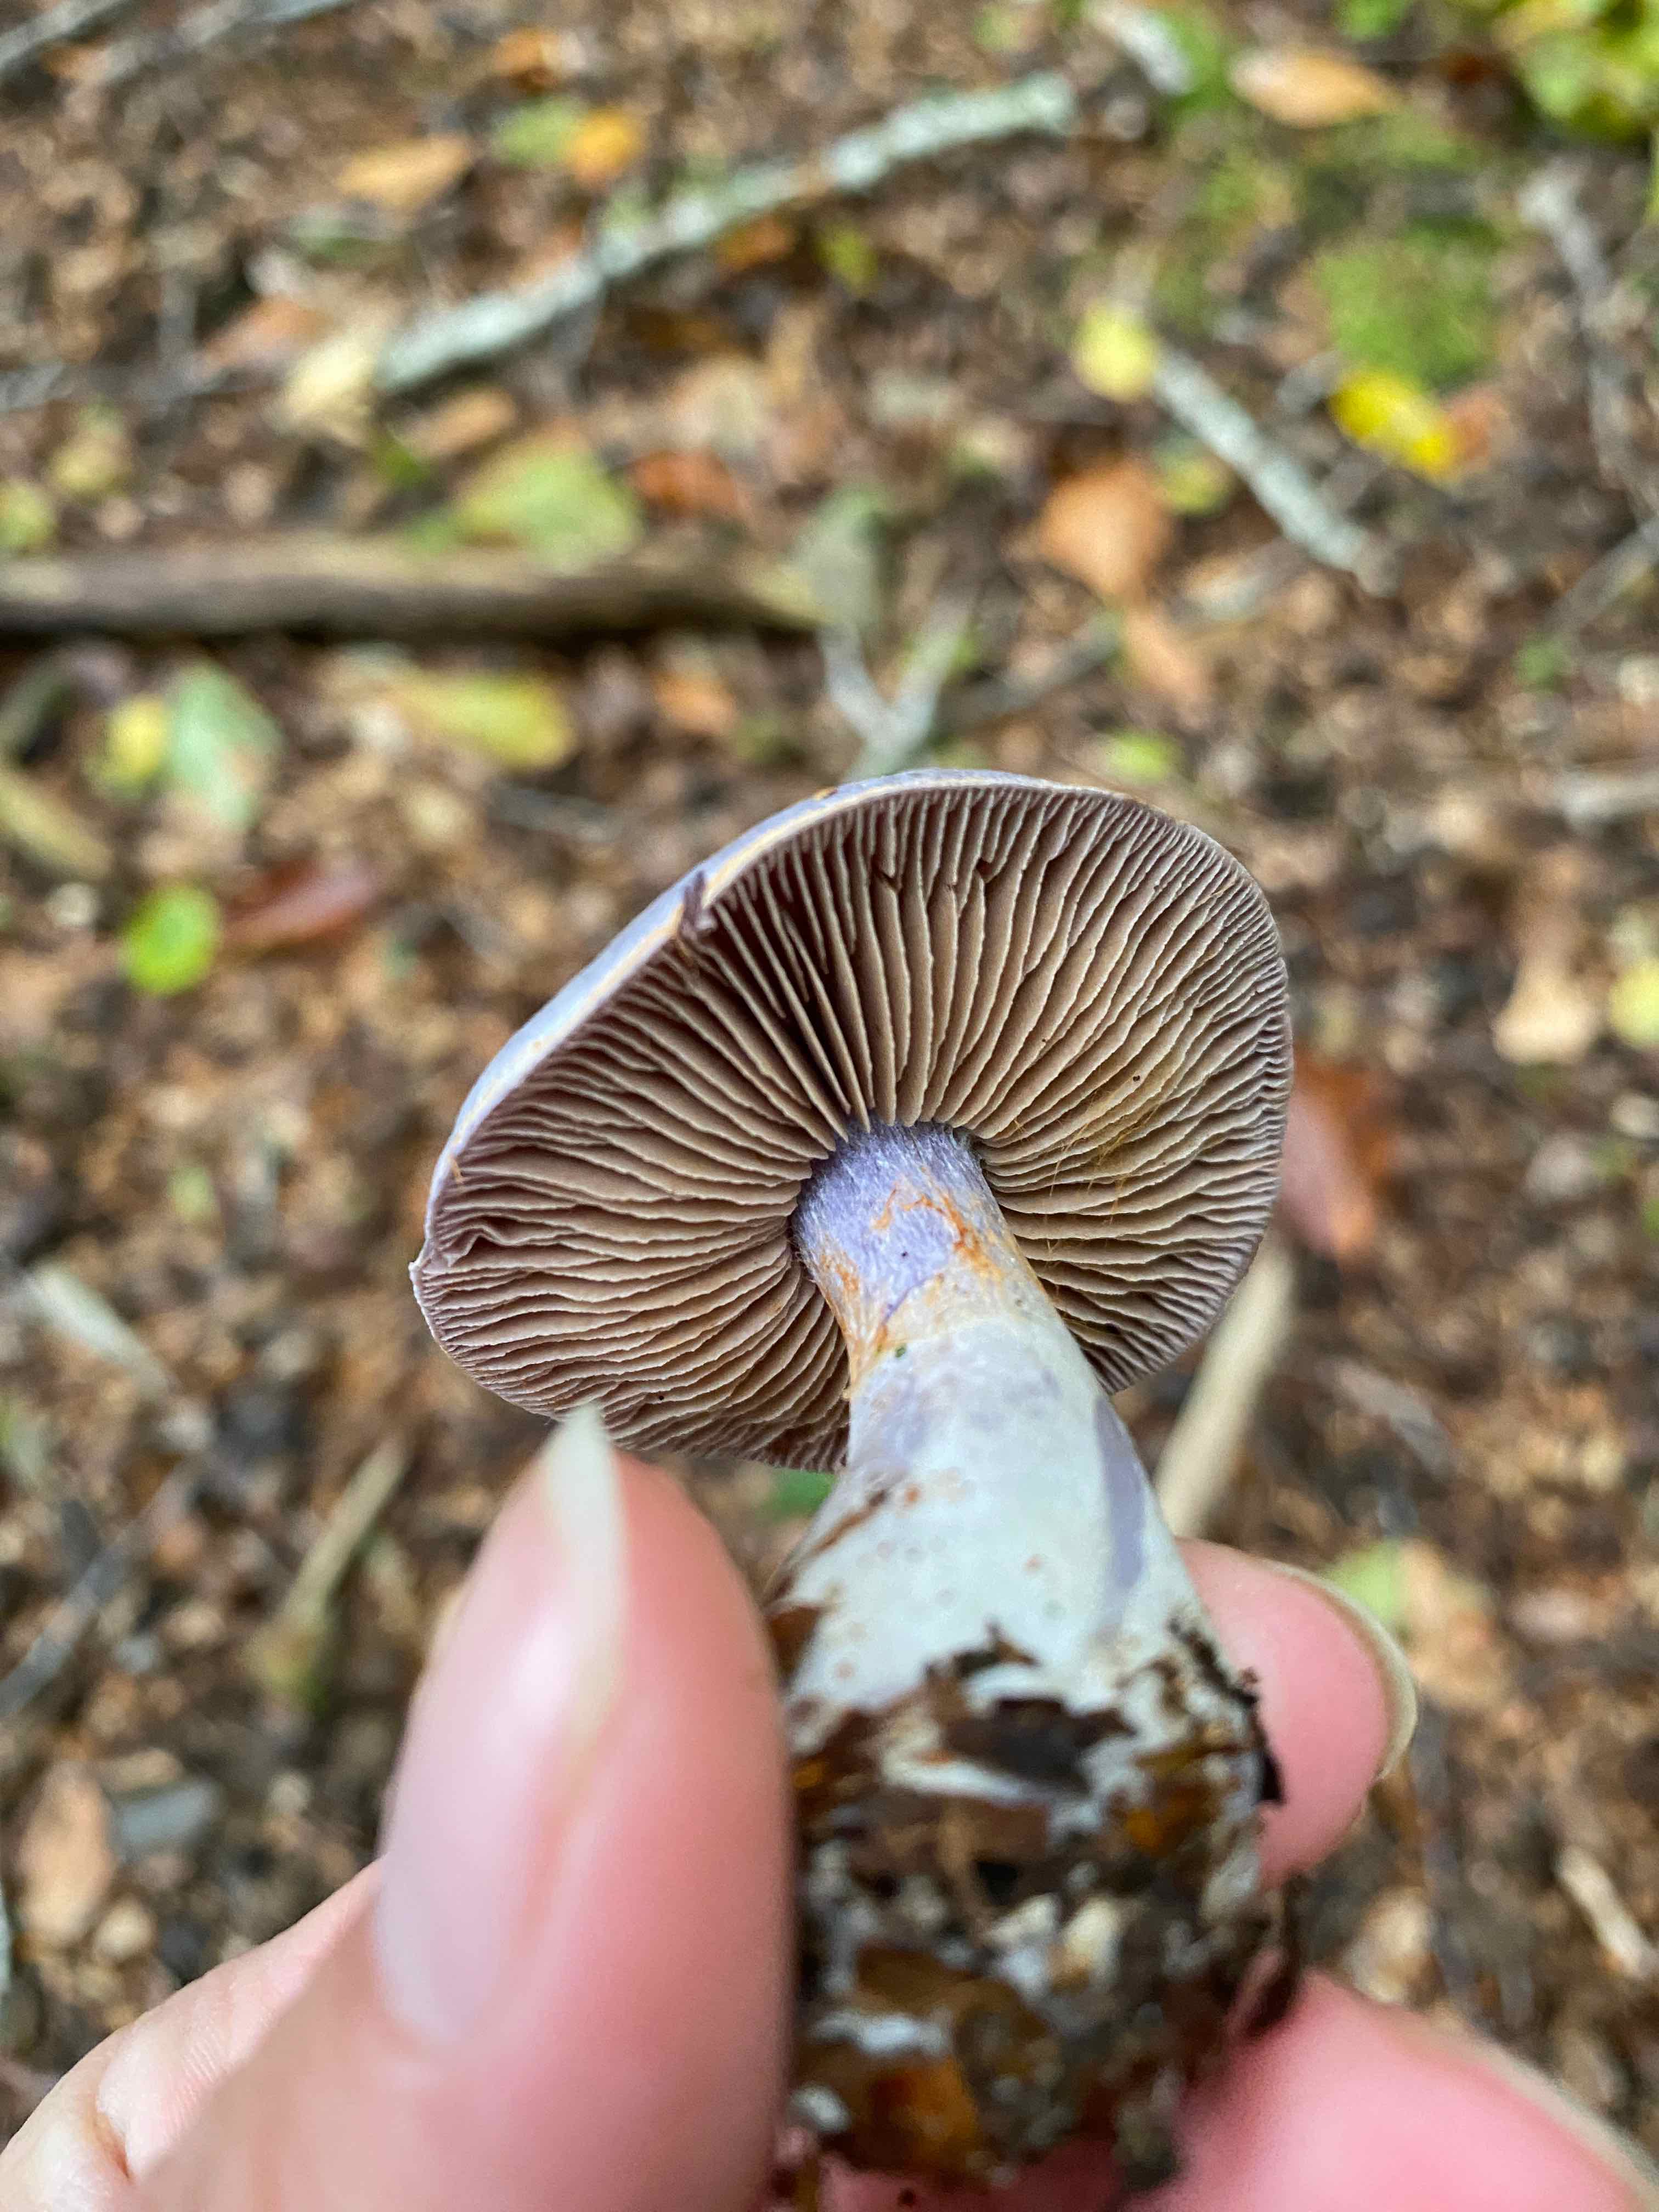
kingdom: Fungi
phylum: Basidiomycota
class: Agaricomycetes
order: Agaricales
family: Cortinariaceae
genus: Cortinarius
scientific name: Cortinarius alboviolaceus
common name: lysviolet slørhat
